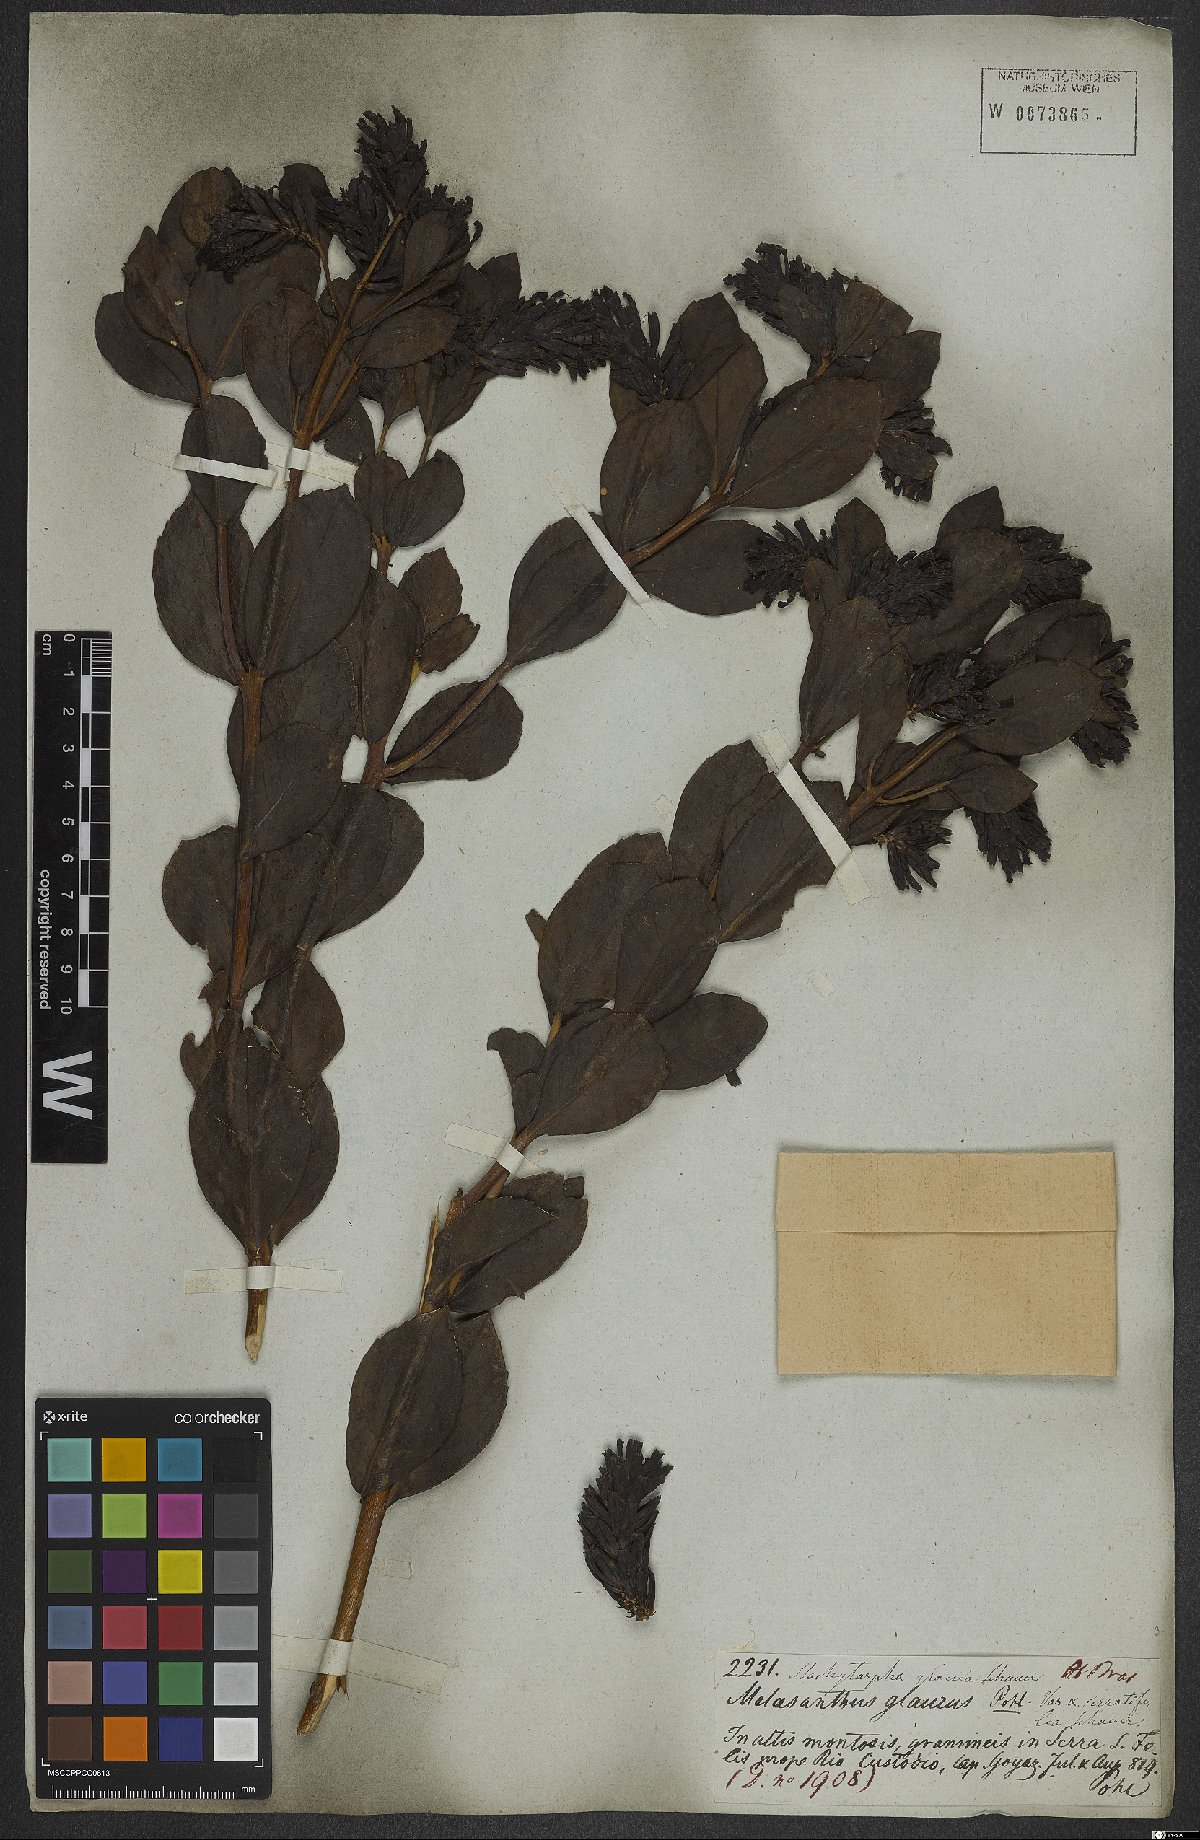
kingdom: Plantae
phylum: Tracheophyta
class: Magnoliopsida
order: Lamiales
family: Verbenaceae
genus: Stachytarpheta
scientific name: Stachytarpheta glauca
